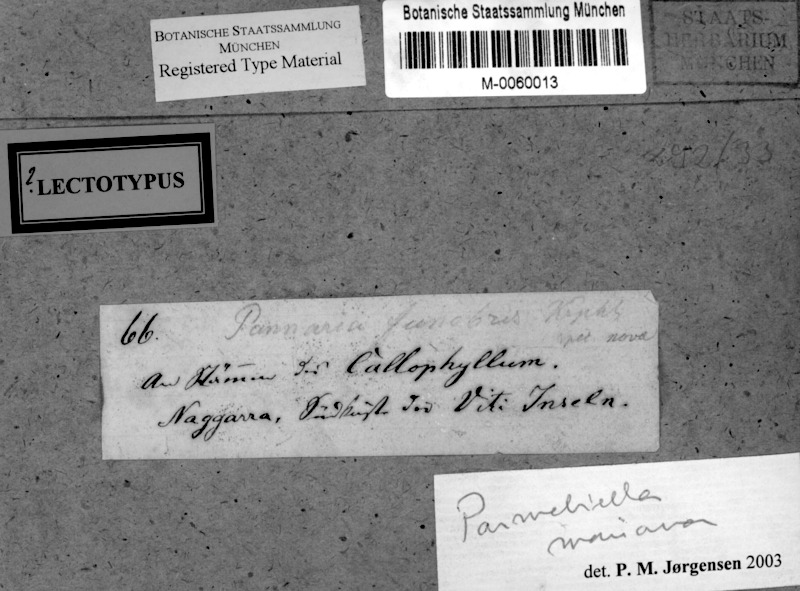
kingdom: Fungi
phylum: Ascomycota
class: Lecanoromycetes
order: Peltigerales
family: Pannariaceae
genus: Lepidocollema
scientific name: Lepidocollema marianum
